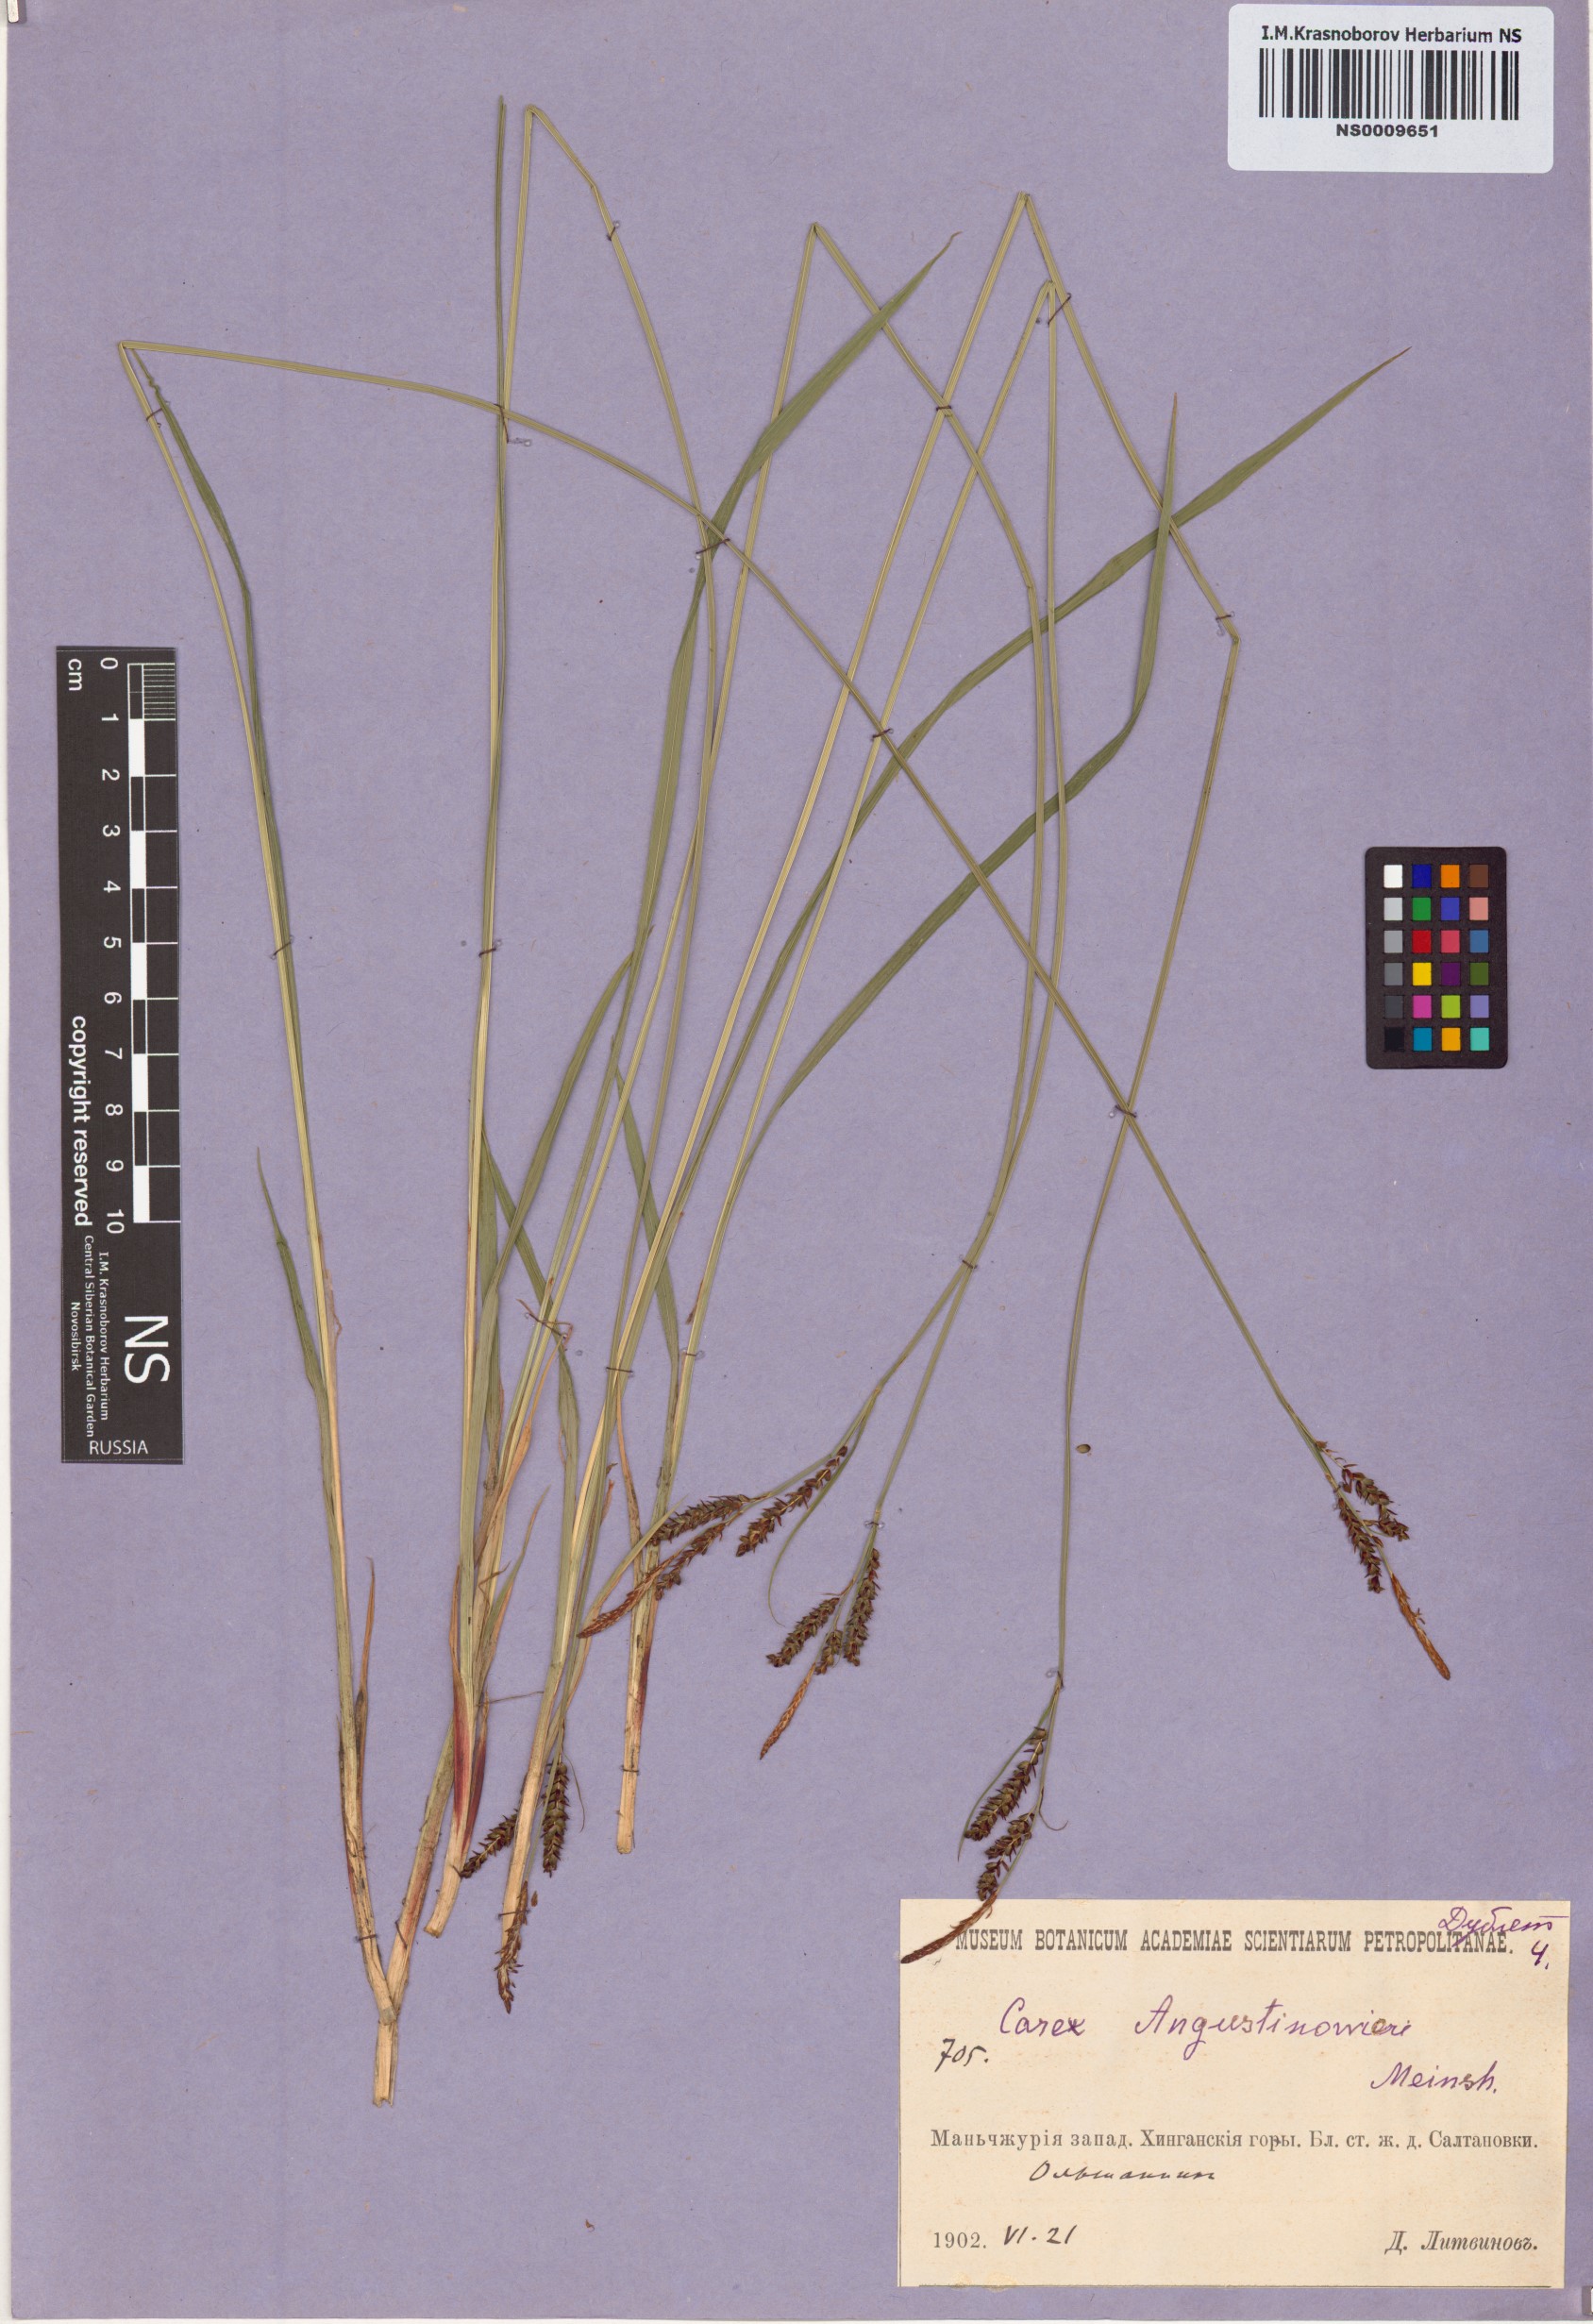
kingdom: Plantae
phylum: Tracheophyta
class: Liliopsida
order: Poales
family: Cyperaceae
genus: Carex
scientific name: Carex augustinowiczii
